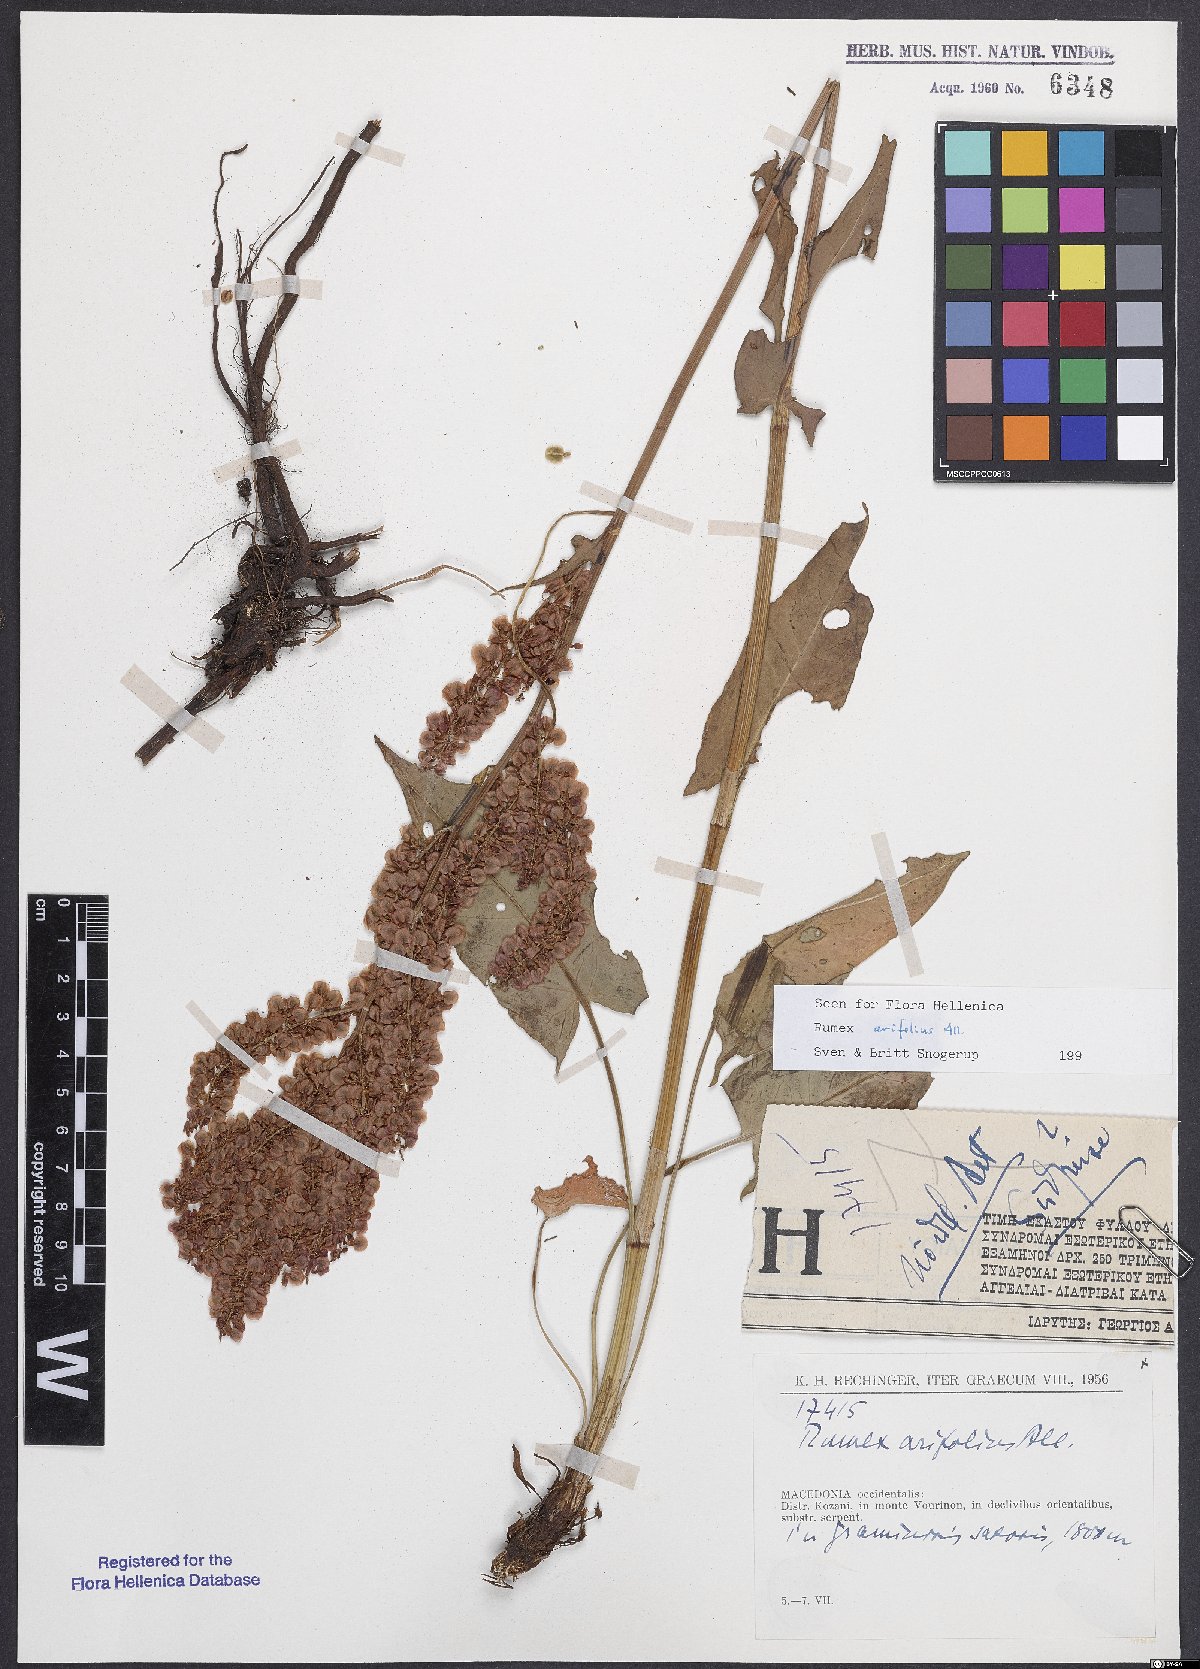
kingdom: Plantae
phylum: Tracheophyta
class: Magnoliopsida
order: Caryophyllales
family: Polygonaceae
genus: Rumex
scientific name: Rumex arifolius
